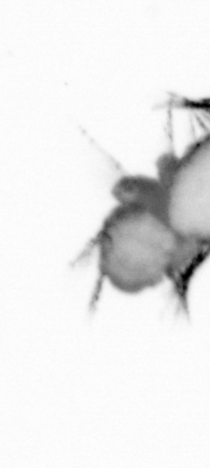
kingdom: Animalia
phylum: Annelida
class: Polychaeta
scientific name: Polychaeta
